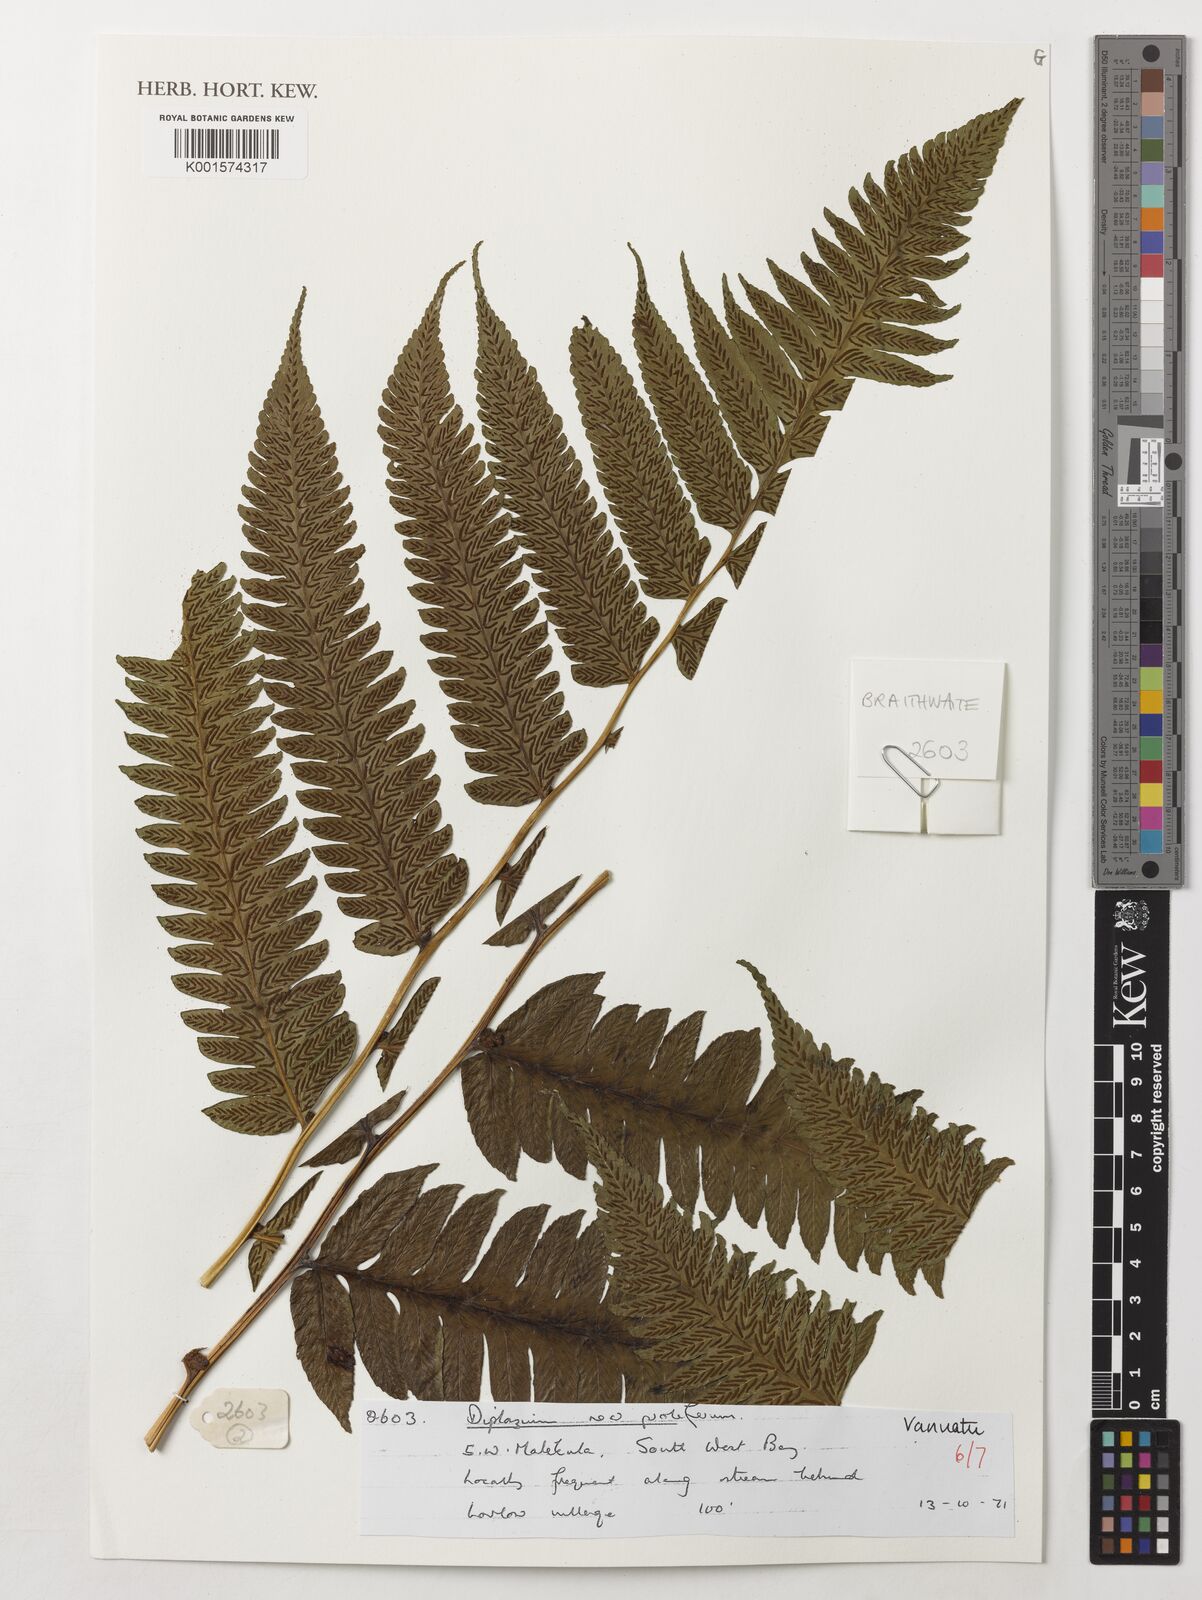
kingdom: Plantae
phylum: Tracheophyta
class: Polypodiopsida
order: Polypodiales
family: Athyriaceae
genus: Diplazium
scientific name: Diplazium proliferum
